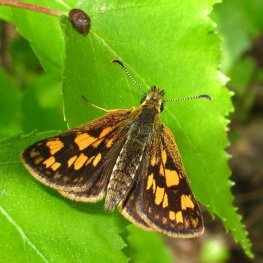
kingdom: Animalia
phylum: Arthropoda
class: Insecta
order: Lepidoptera
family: Hesperiidae
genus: Carterocephalus
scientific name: Carterocephalus palaemon
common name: Chequered Skipper
